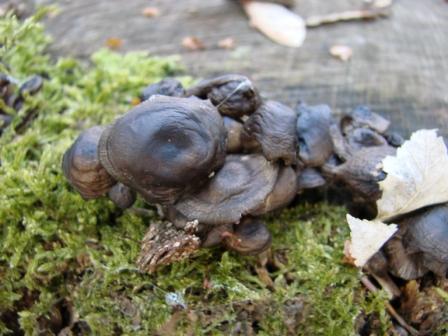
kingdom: Fungi
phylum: Basidiomycota
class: Agaricomycetes
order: Agaricales
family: Mycenaceae
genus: Mycena
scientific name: Mycena tintinnabulum
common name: vinter-huesvamp
